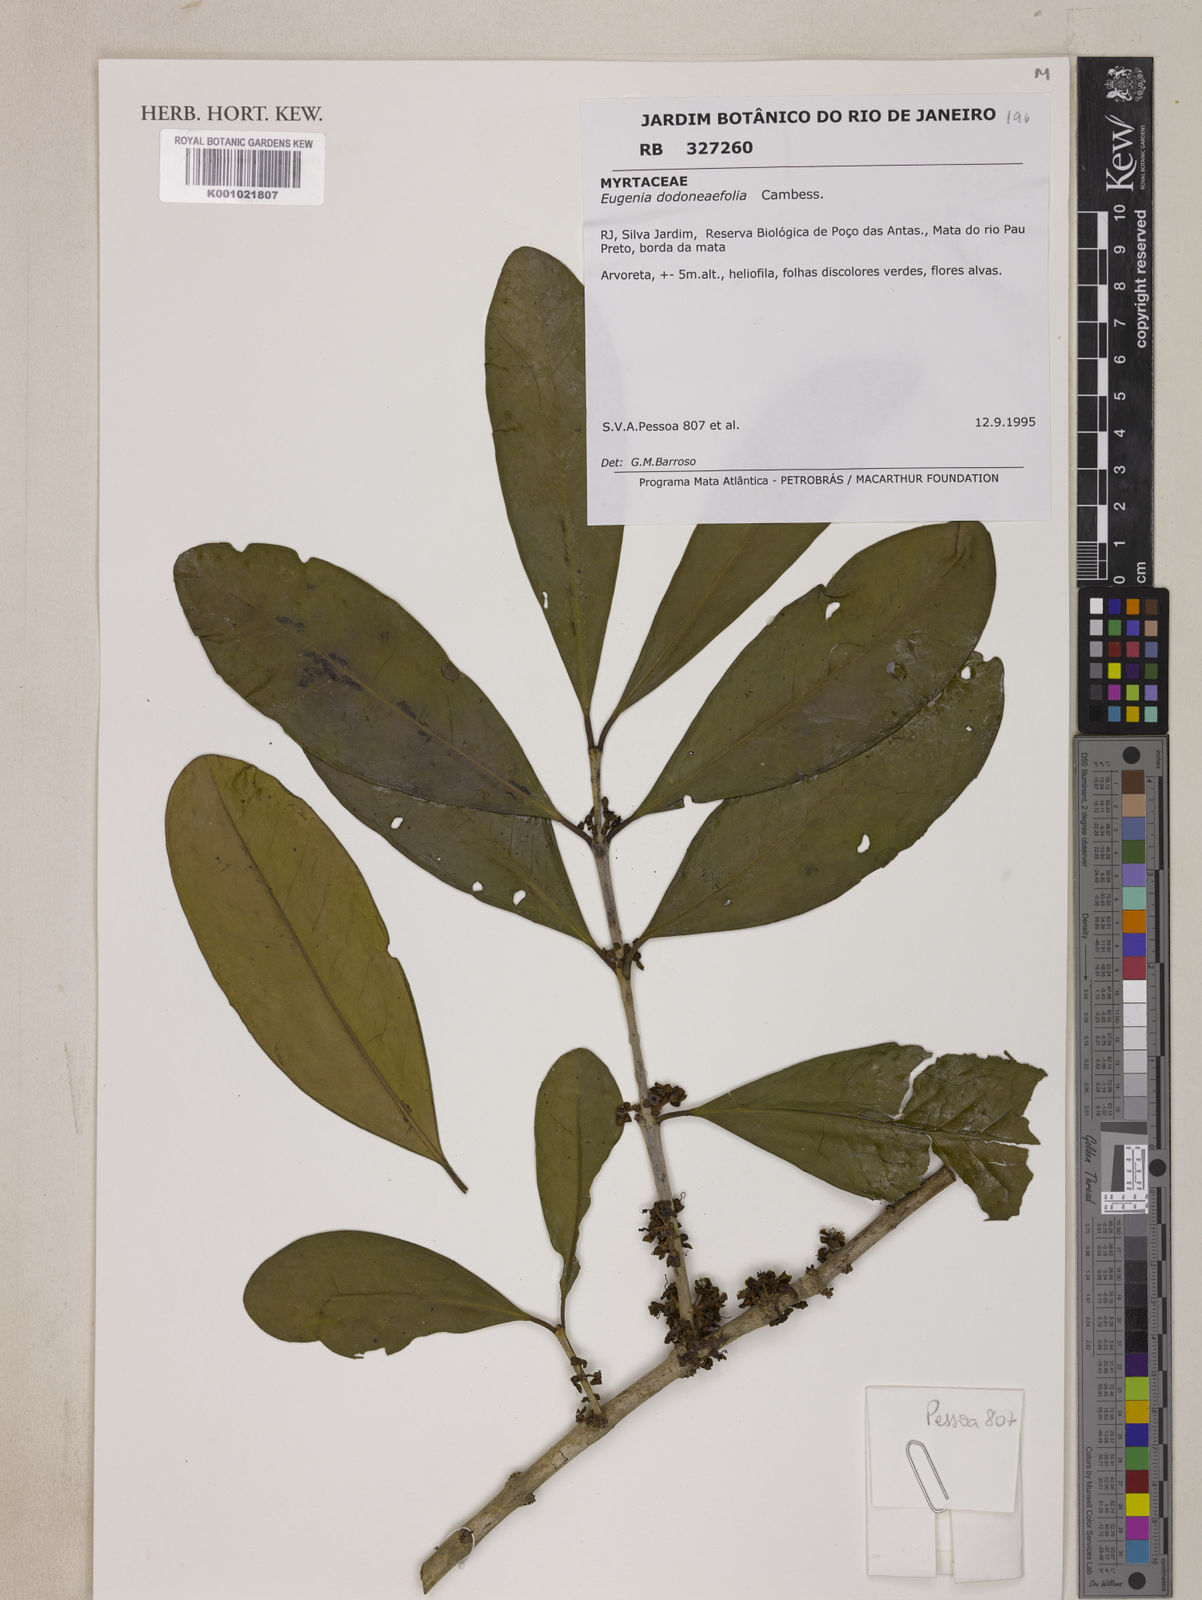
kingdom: Plantae
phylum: Tracheophyta
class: Magnoliopsida
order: Myrtales
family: Myrtaceae
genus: Eugenia
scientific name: Eugenia dodonaeifolia
